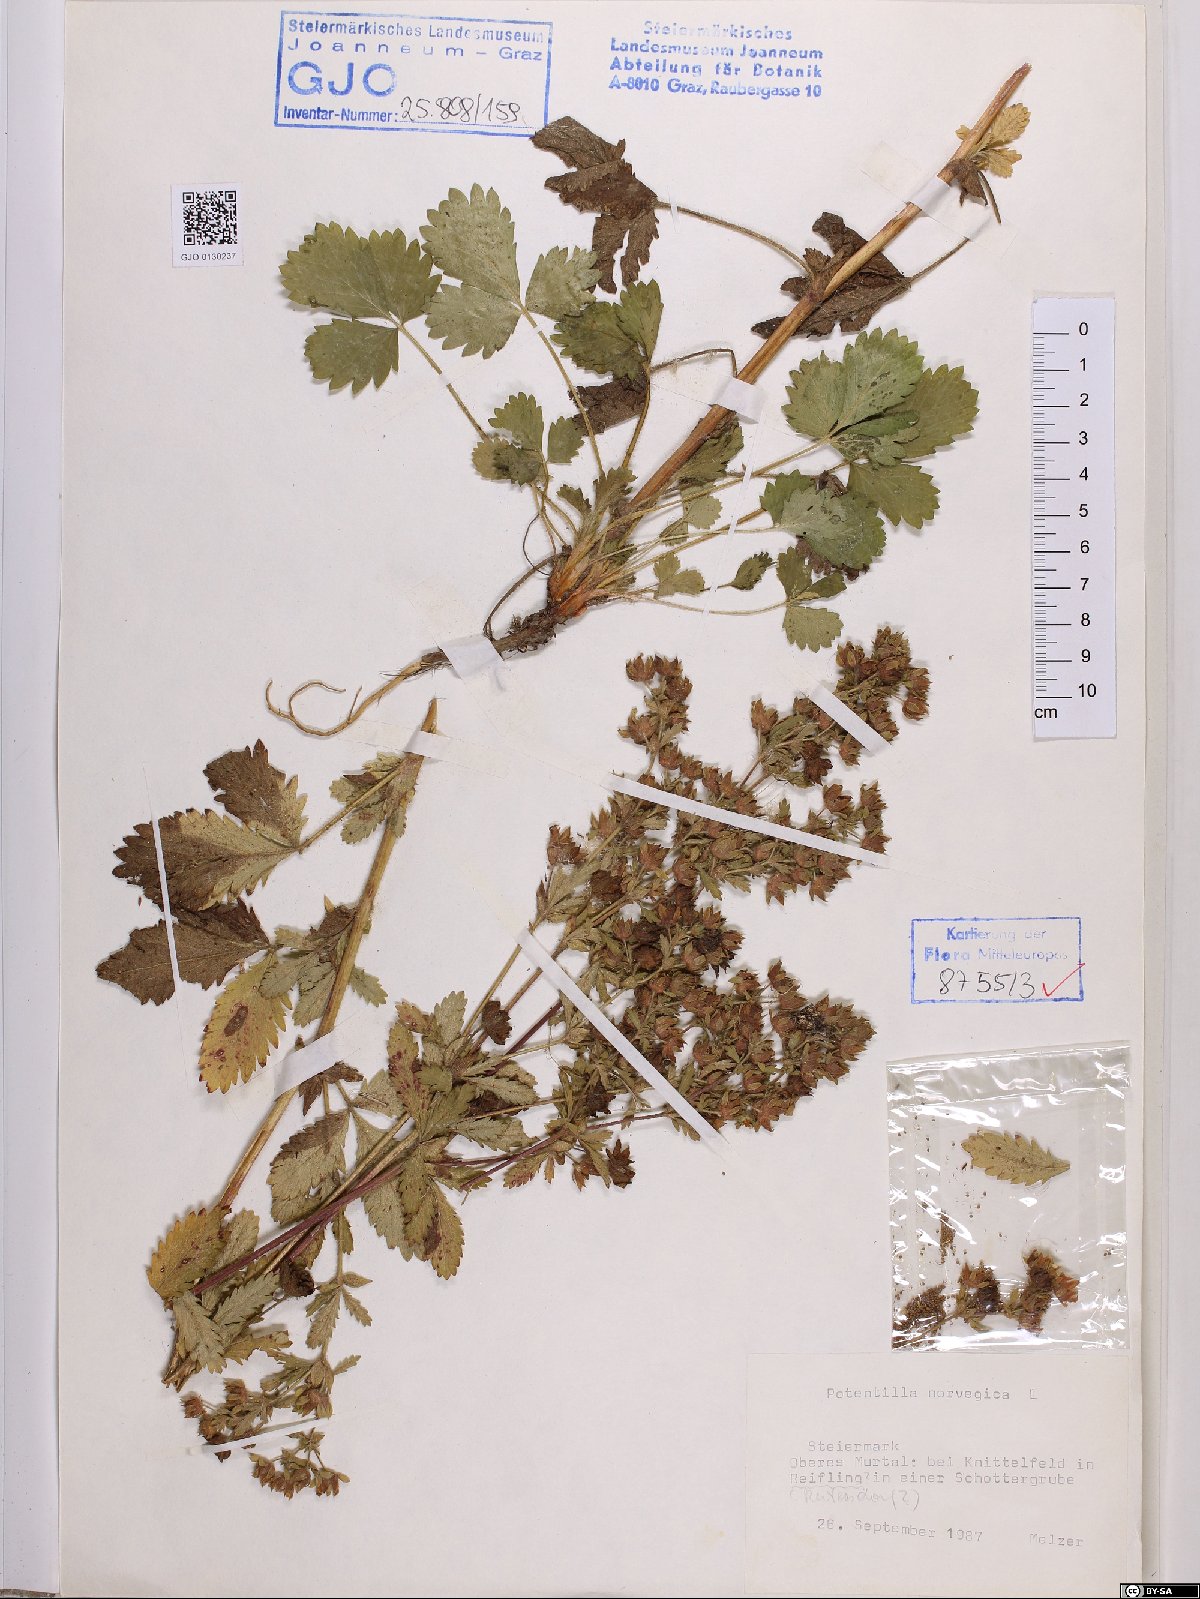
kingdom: Plantae
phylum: Tracheophyta
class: Magnoliopsida
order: Rosales
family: Rosaceae
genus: Potentilla
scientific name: Potentilla norvegica
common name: Ternate-leaved cinquefoil
